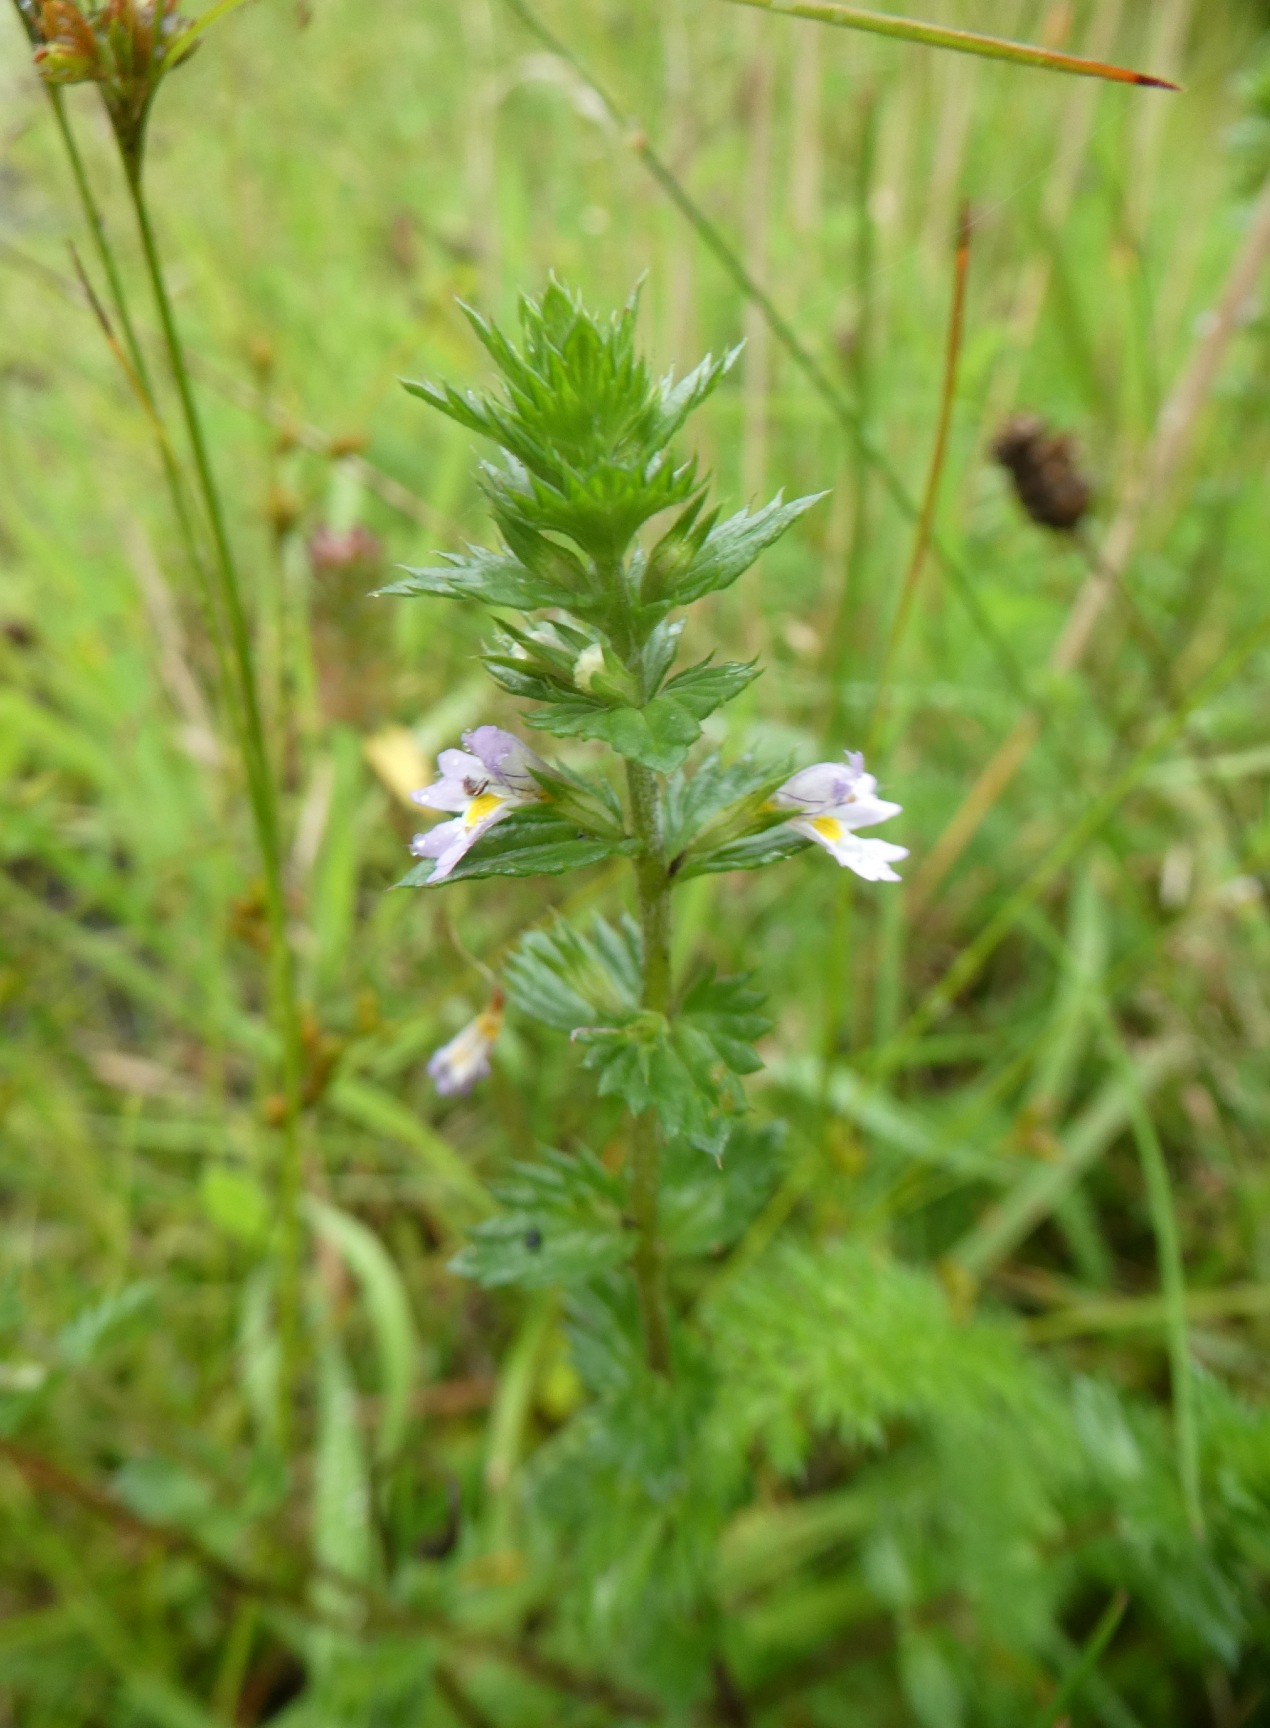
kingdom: Plantae
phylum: Tracheophyta
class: Magnoliopsida
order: Lamiales
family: Orobanchaceae
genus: Euphrasia
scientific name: Euphrasia stricta
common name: Spids øjentrøst
